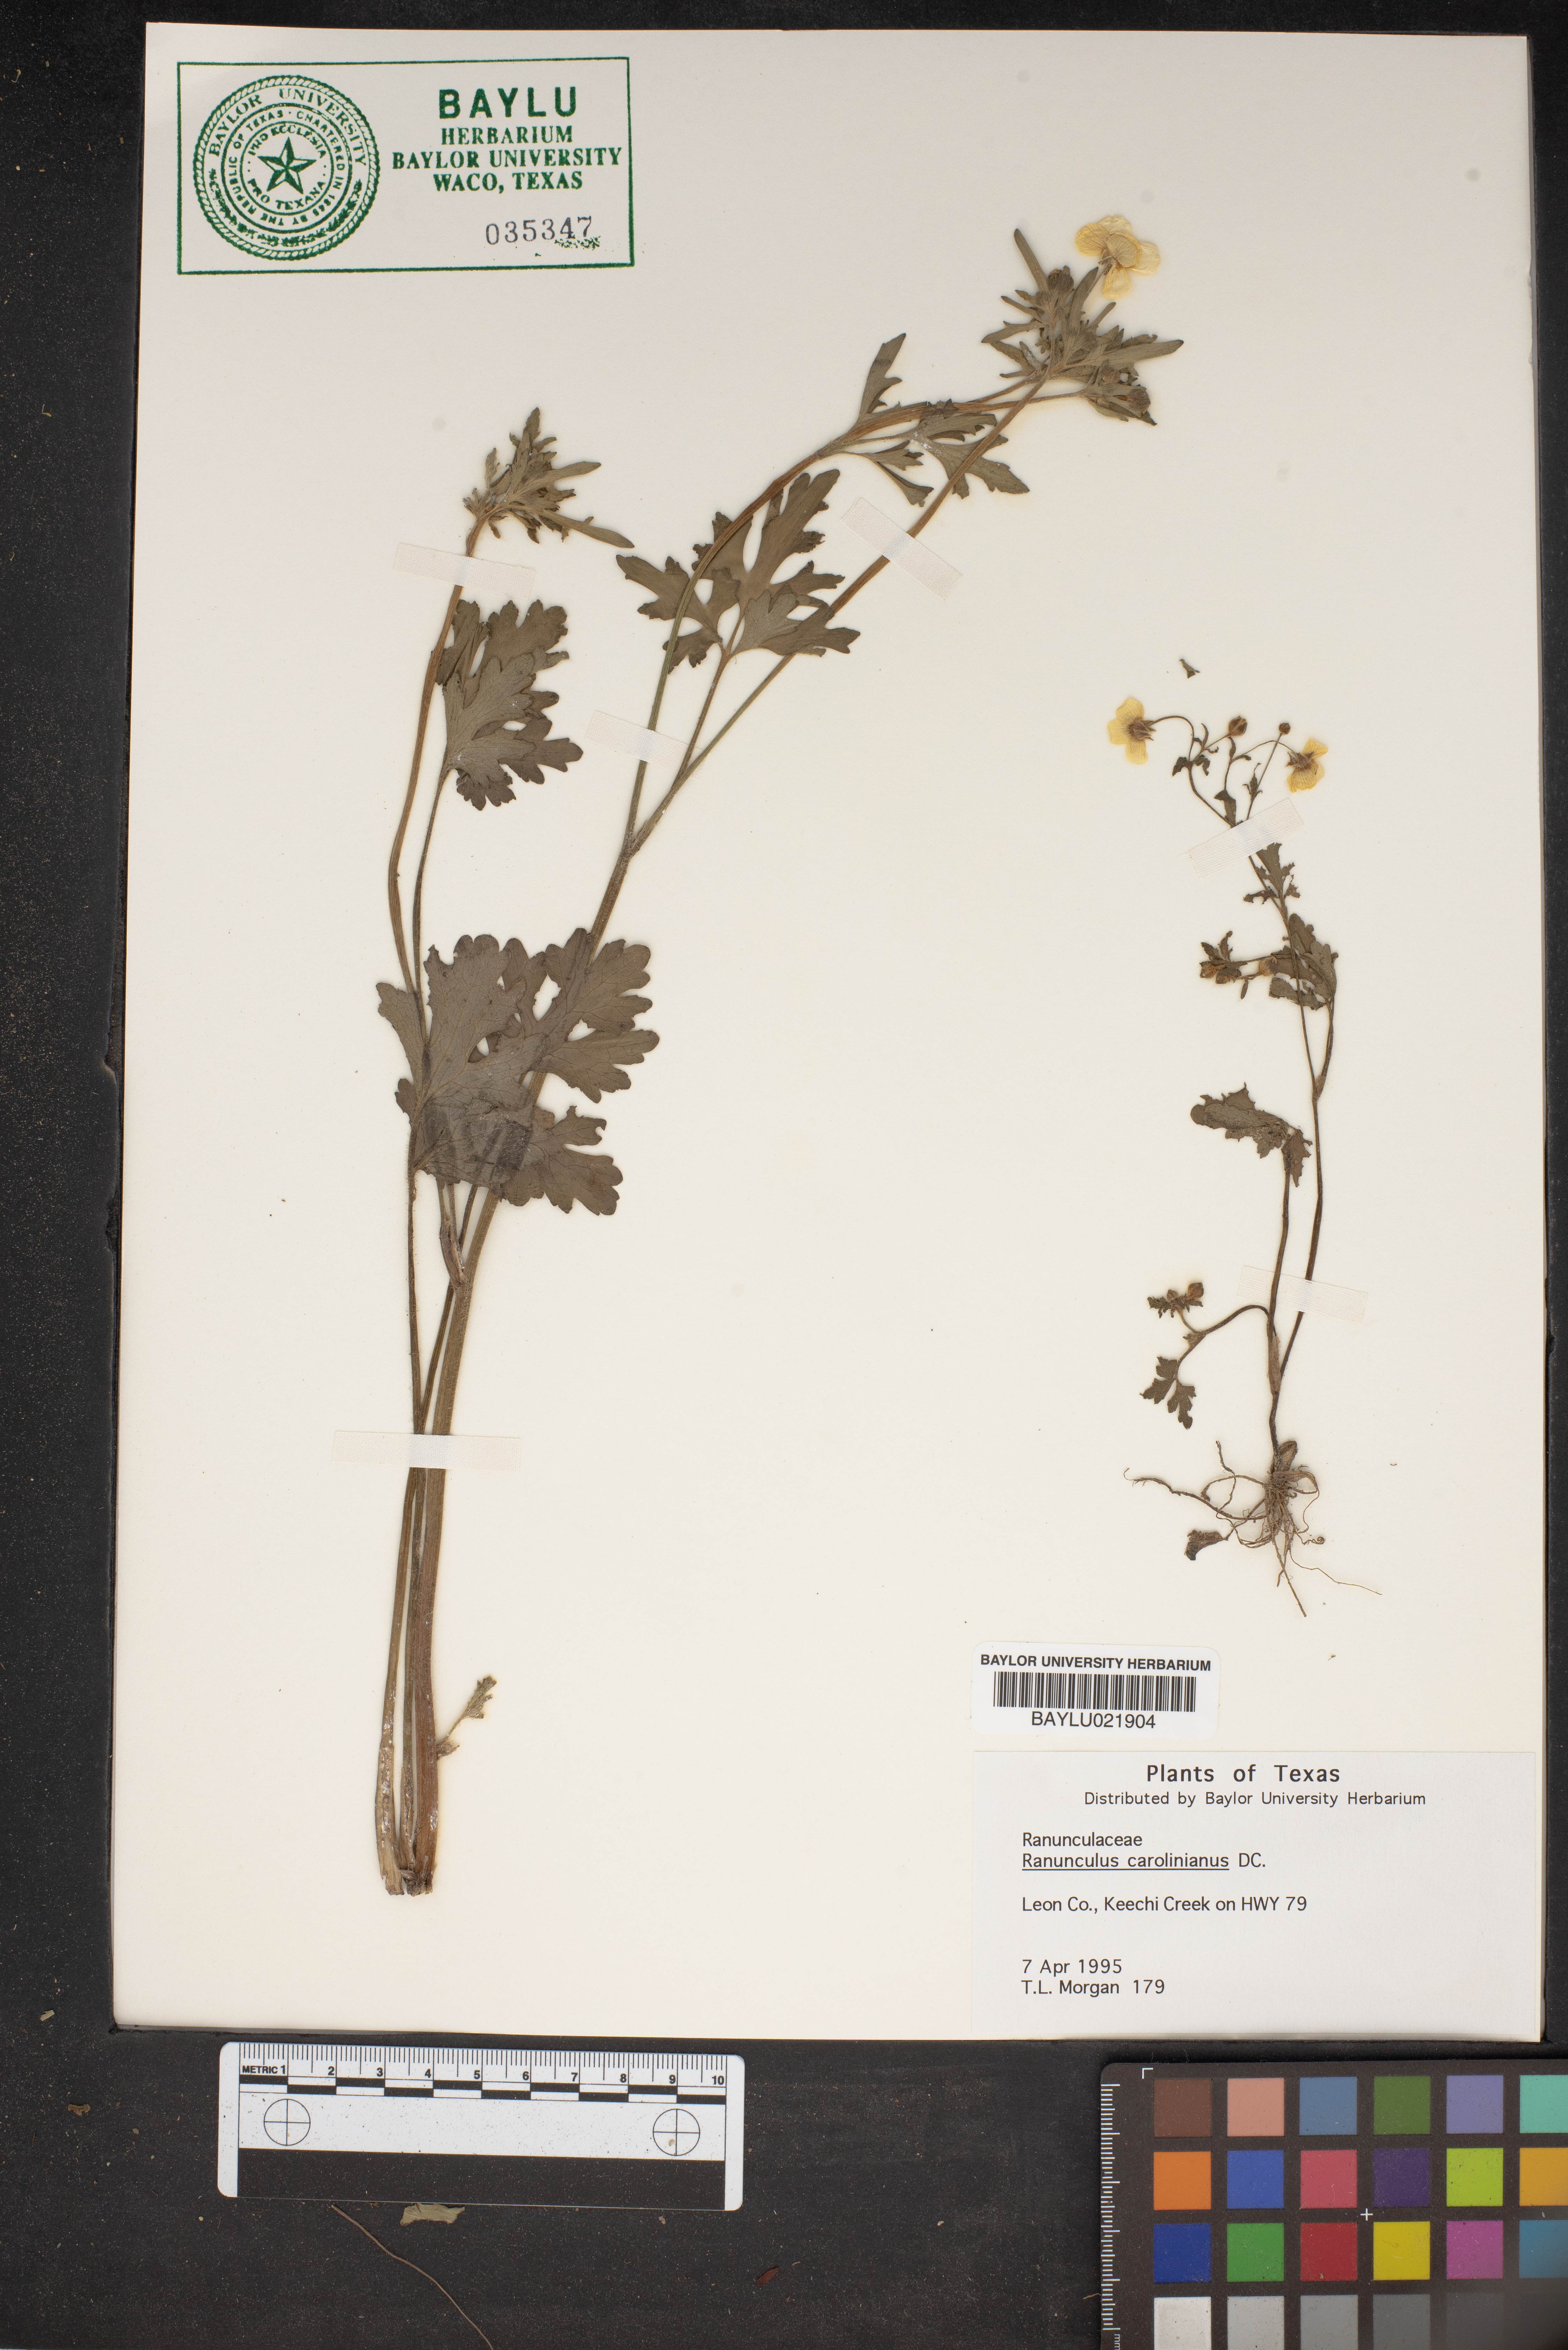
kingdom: Plantae
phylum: Tracheophyta
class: Magnoliopsida
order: Ranunculales
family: Ranunculaceae
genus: Ranunculus
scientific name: Ranunculus hispidus
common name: Bristly buttercup
